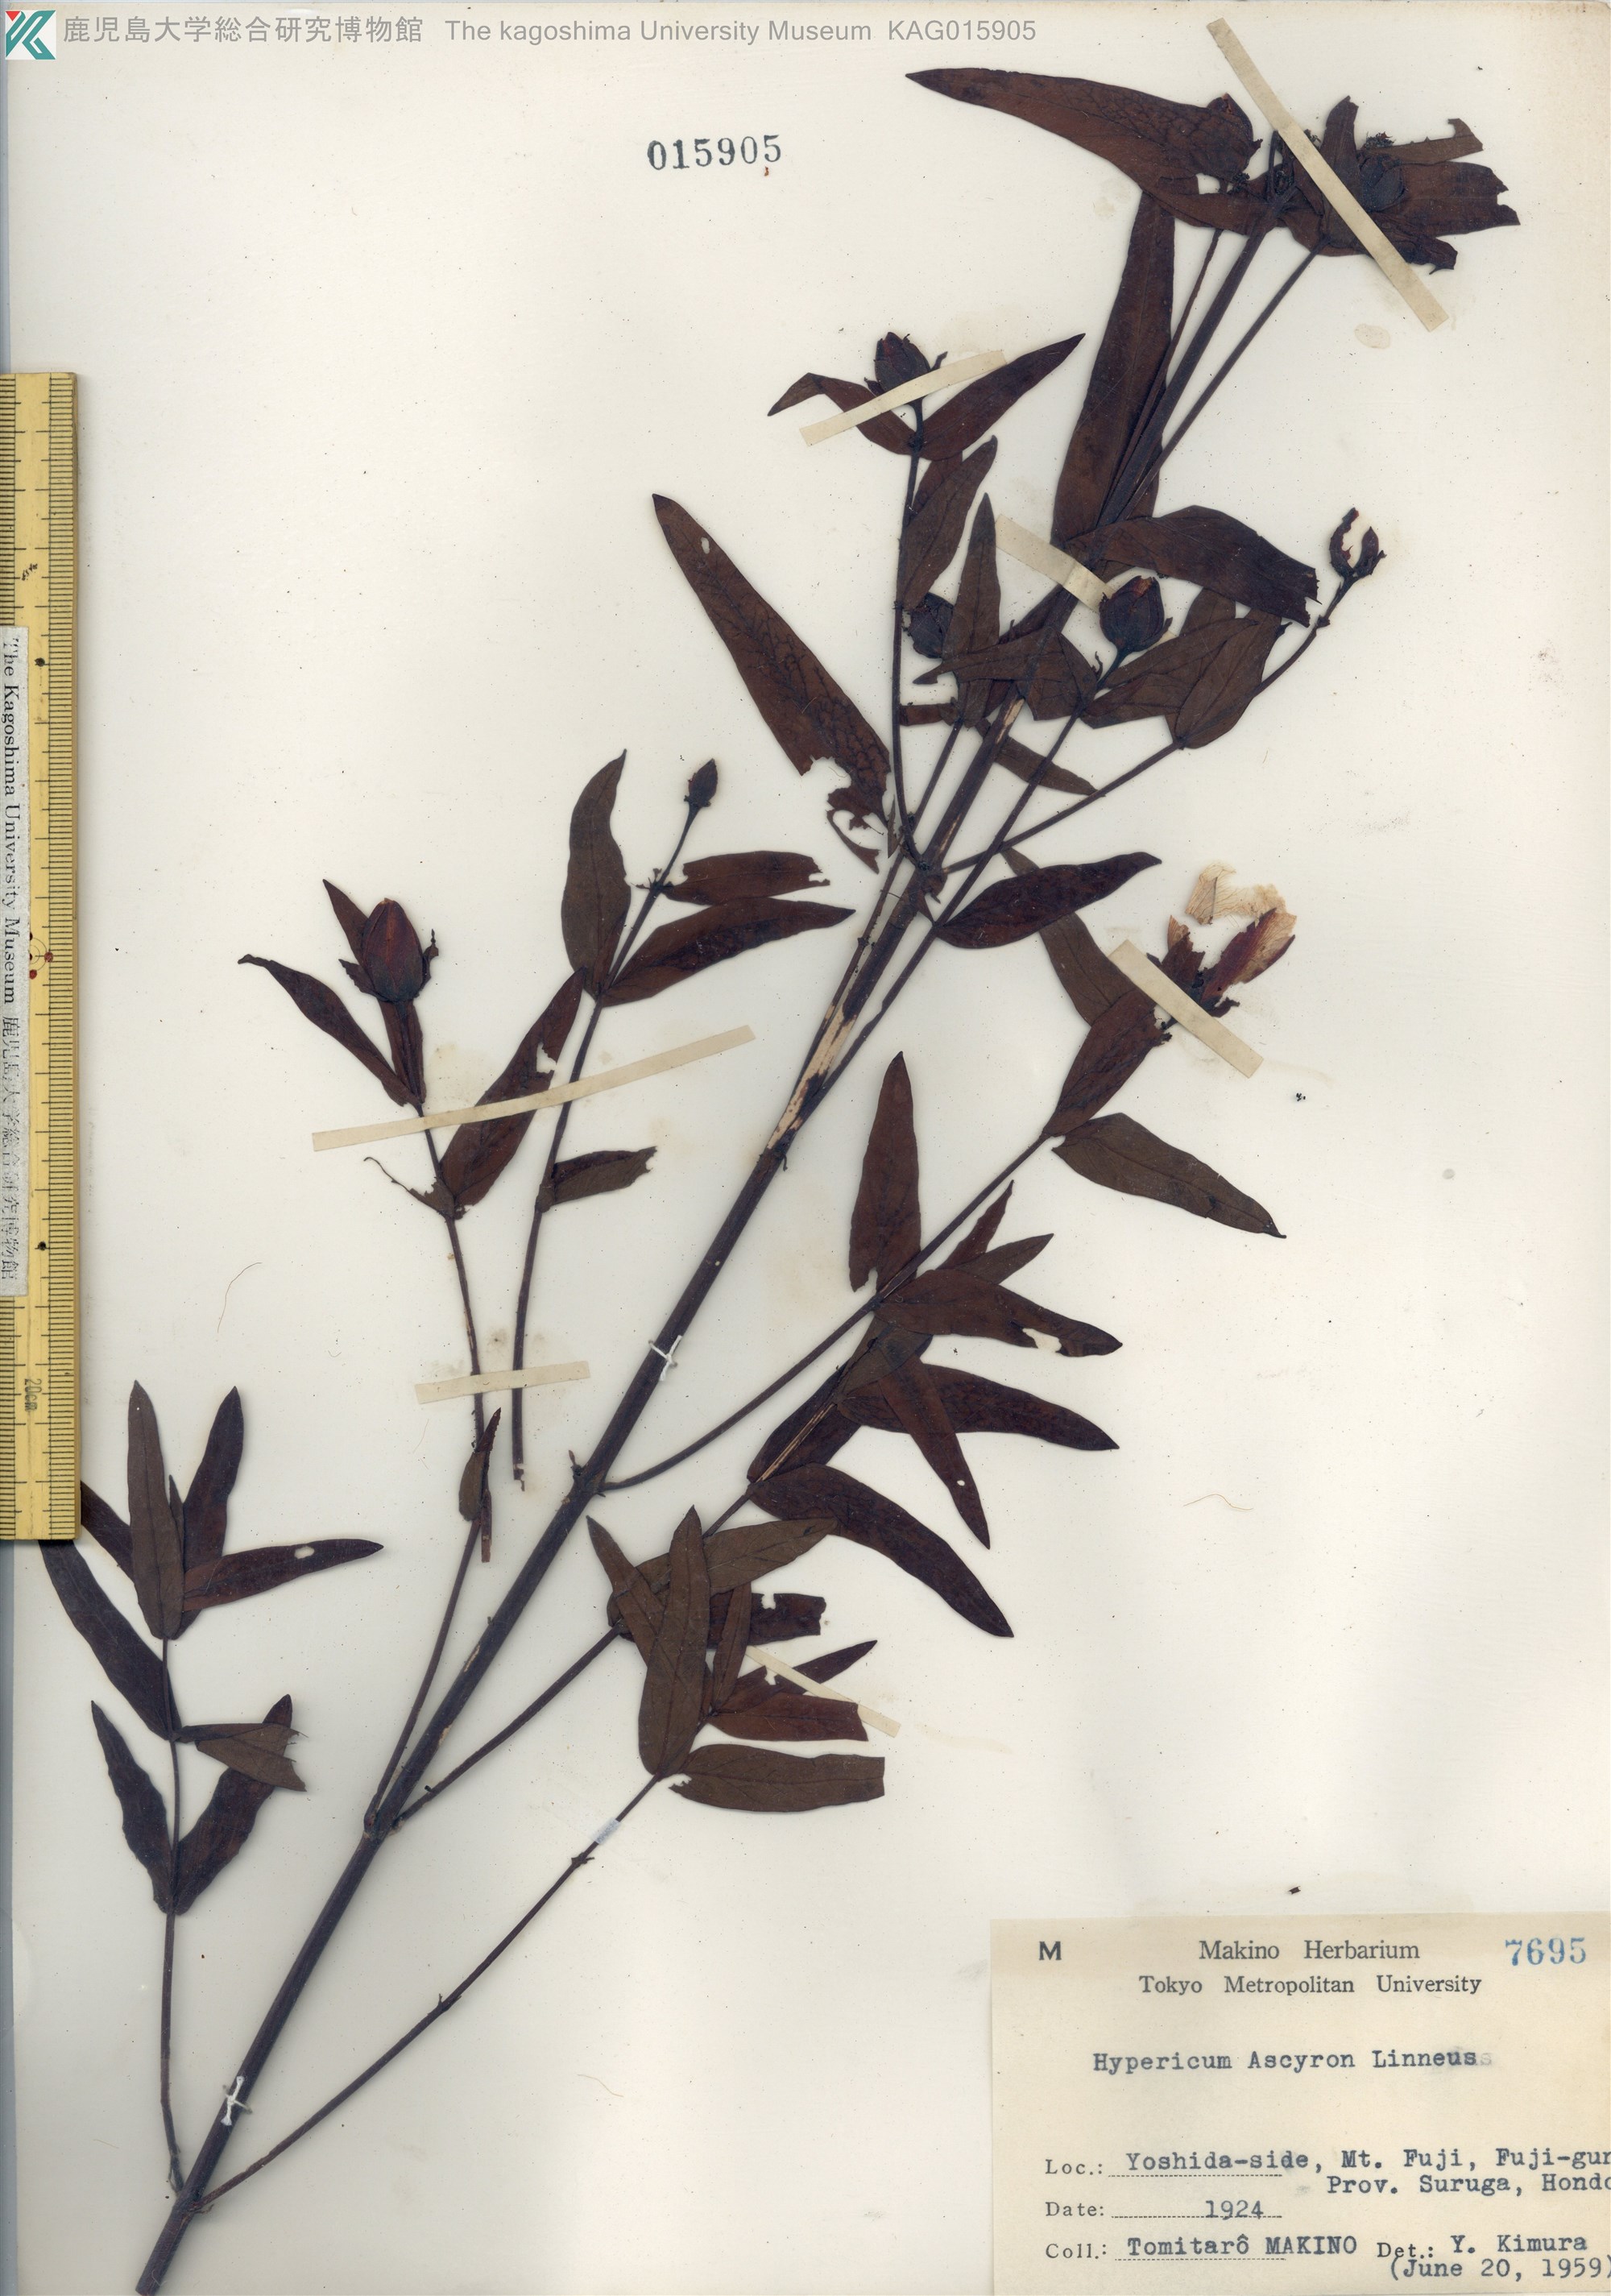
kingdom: Plantae
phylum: Tracheophyta
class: Magnoliopsida
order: Malpighiales
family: Hypericaceae
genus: Hypericum
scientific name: Hypericum ascyron
